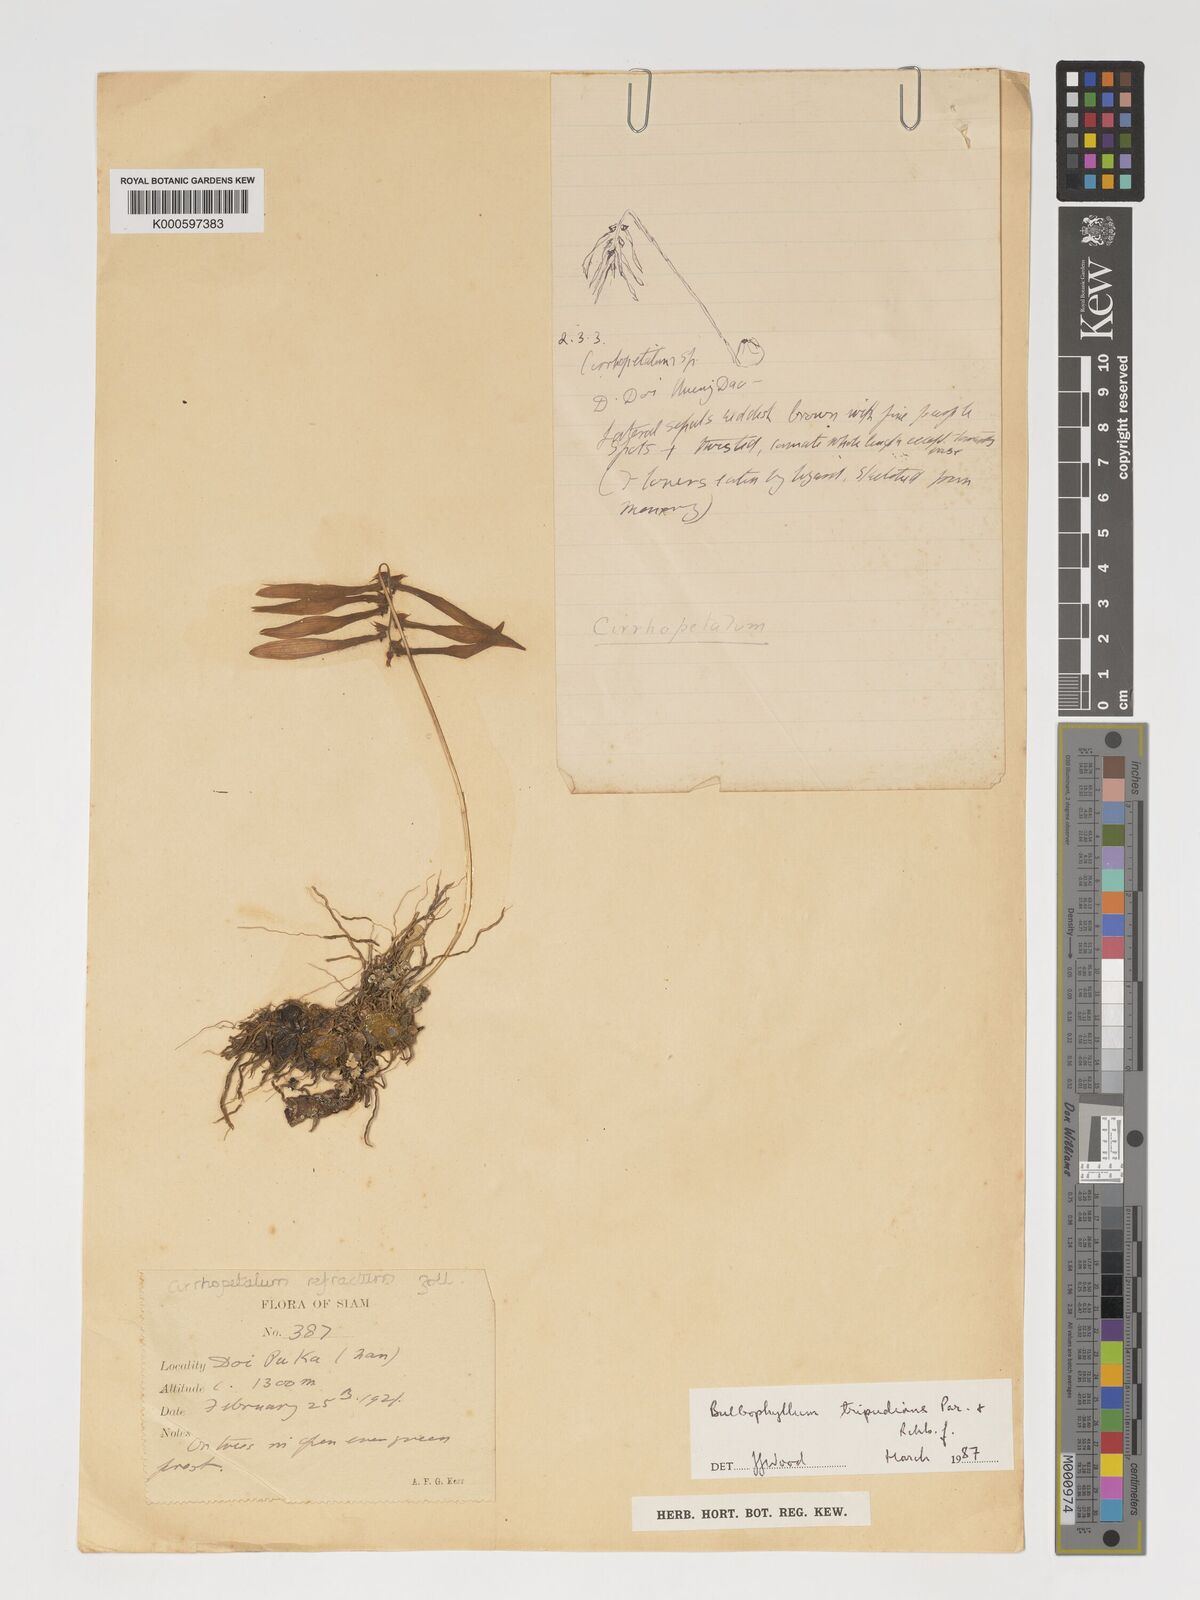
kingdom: Plantae
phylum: Tracheophyta
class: Liliopsida
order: Asparagales
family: Orchidaceae
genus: Bulbophyllum
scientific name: Bulbophyllum tripudians
